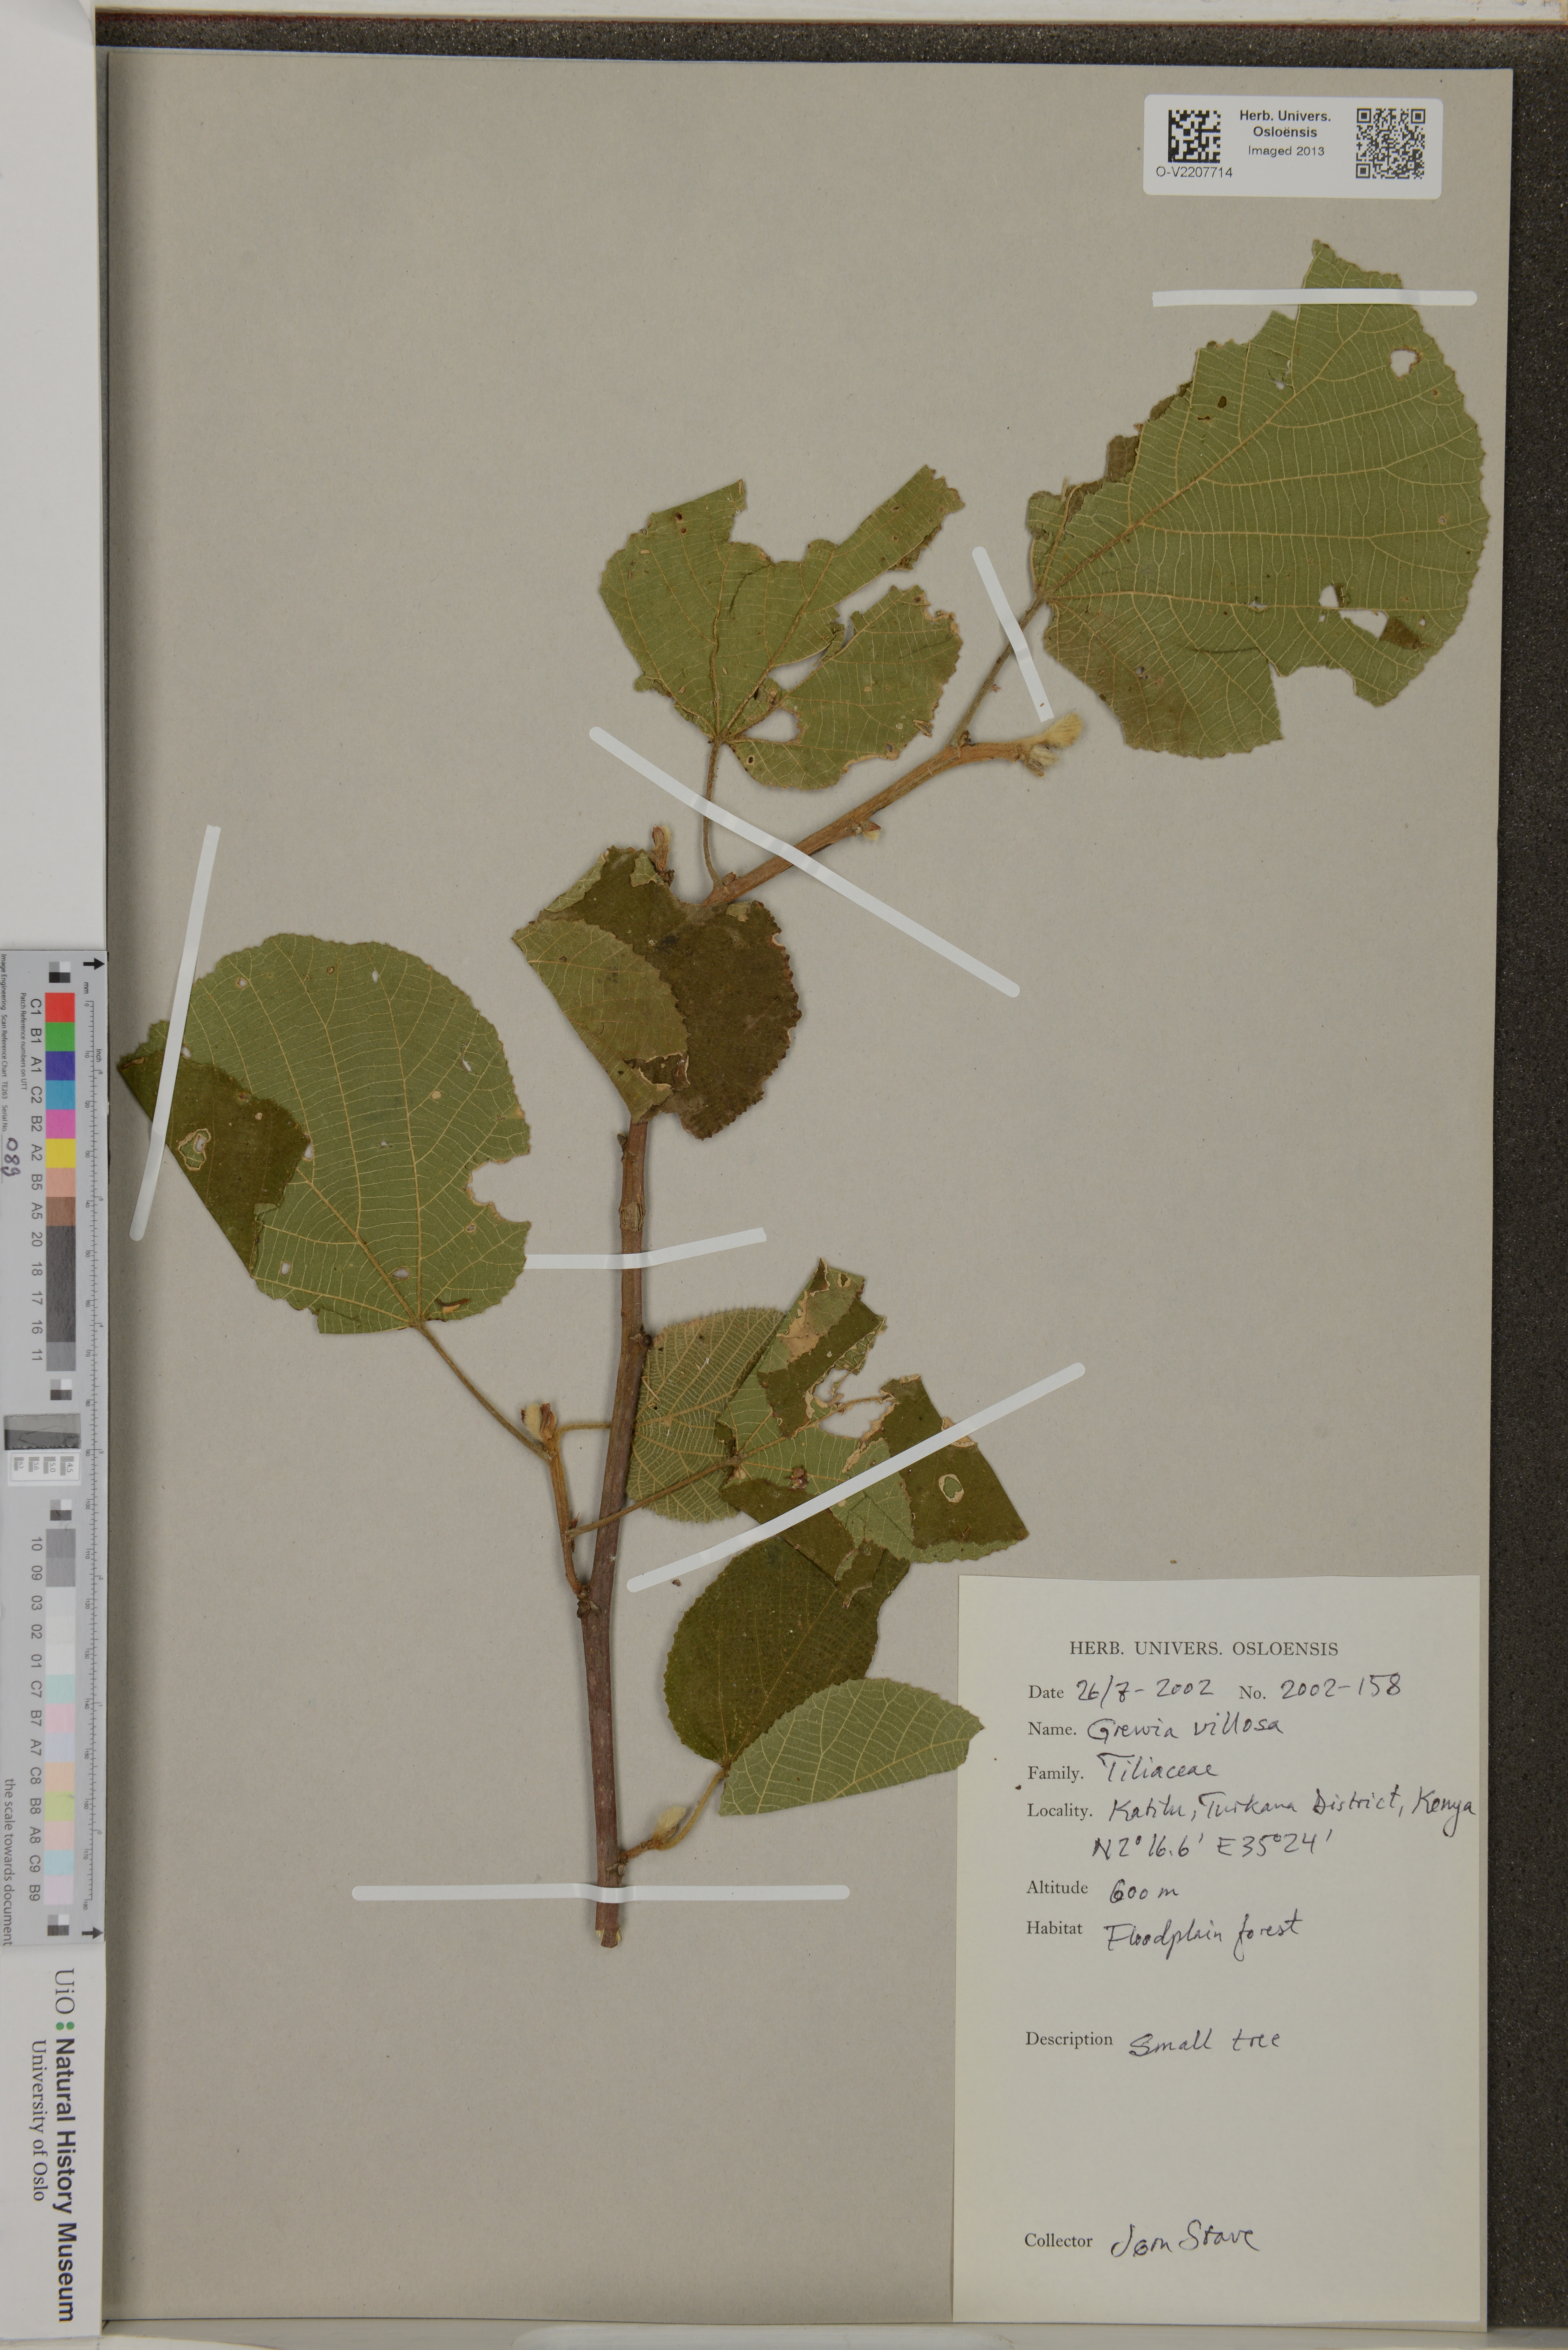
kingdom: Plantae
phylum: Tracheophyta
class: Magnoliopsida
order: Malvales
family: Malvaceae
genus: Grewia
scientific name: Grewia villosa
